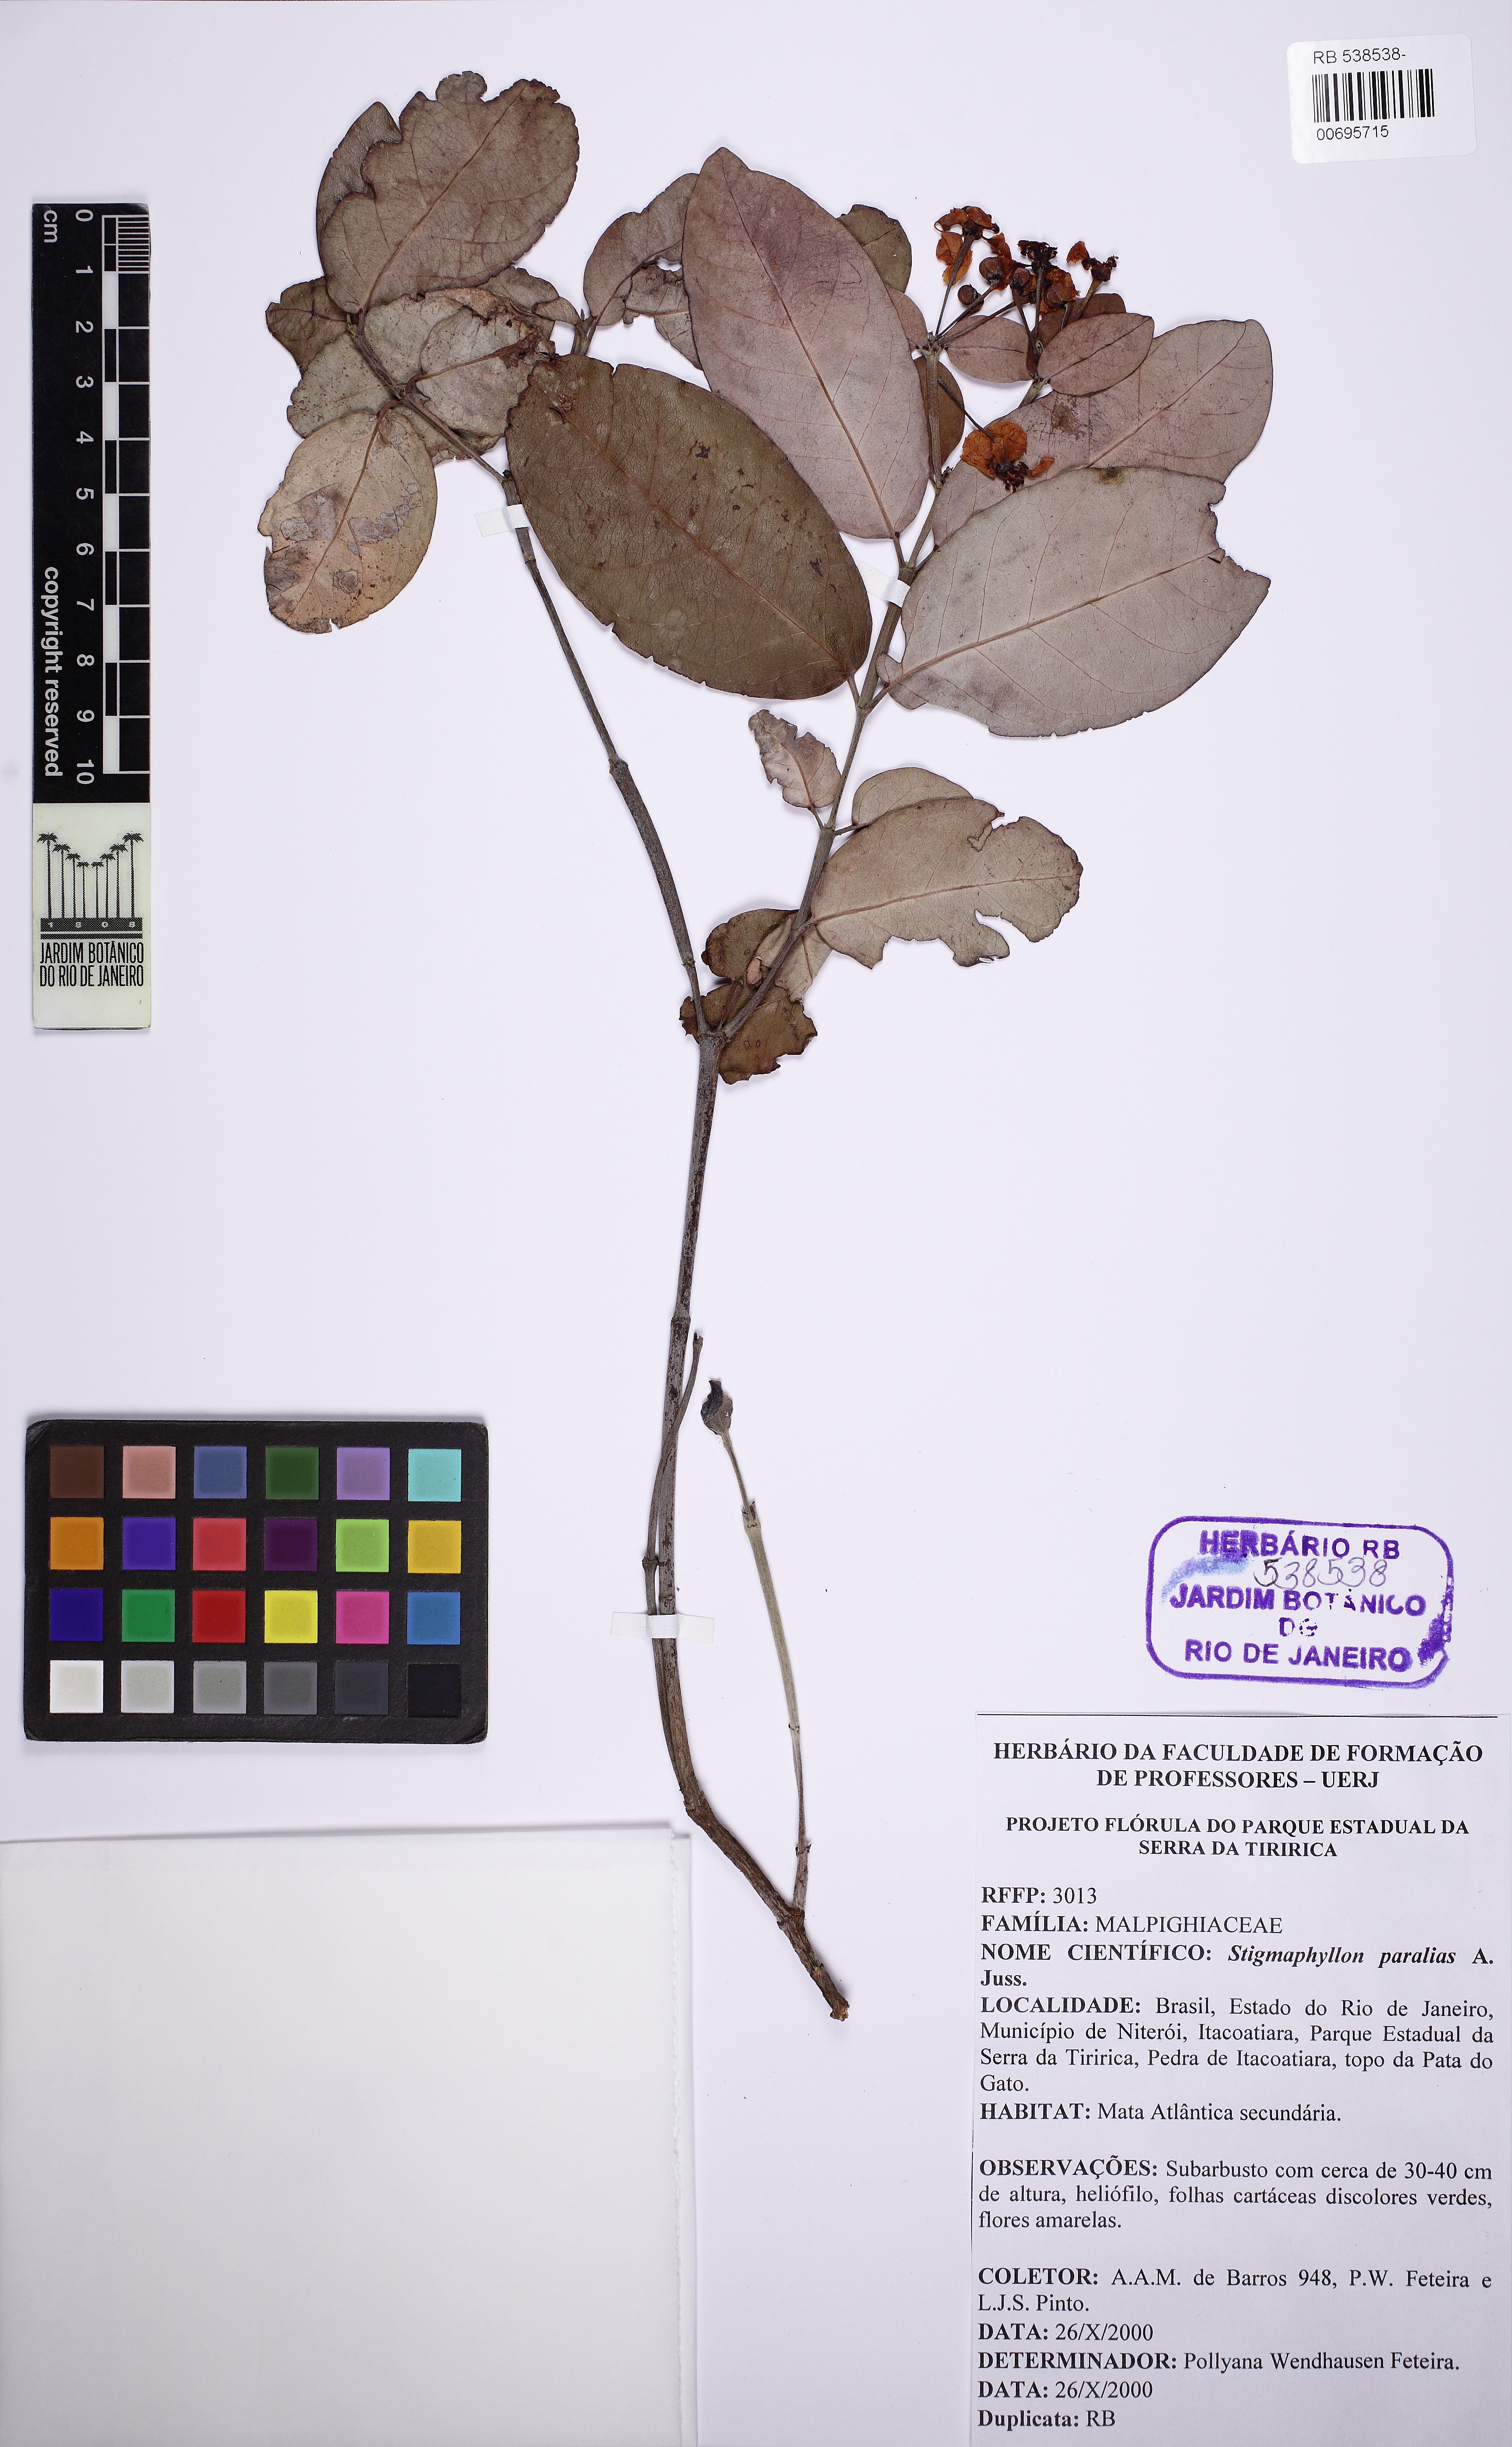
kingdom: Plantae
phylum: Tracheophyta
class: Magnoliopsida
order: Malpighiales
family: Malpighiaceae
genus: Stigmaphyllon
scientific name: Stigmaphyllon paralias
